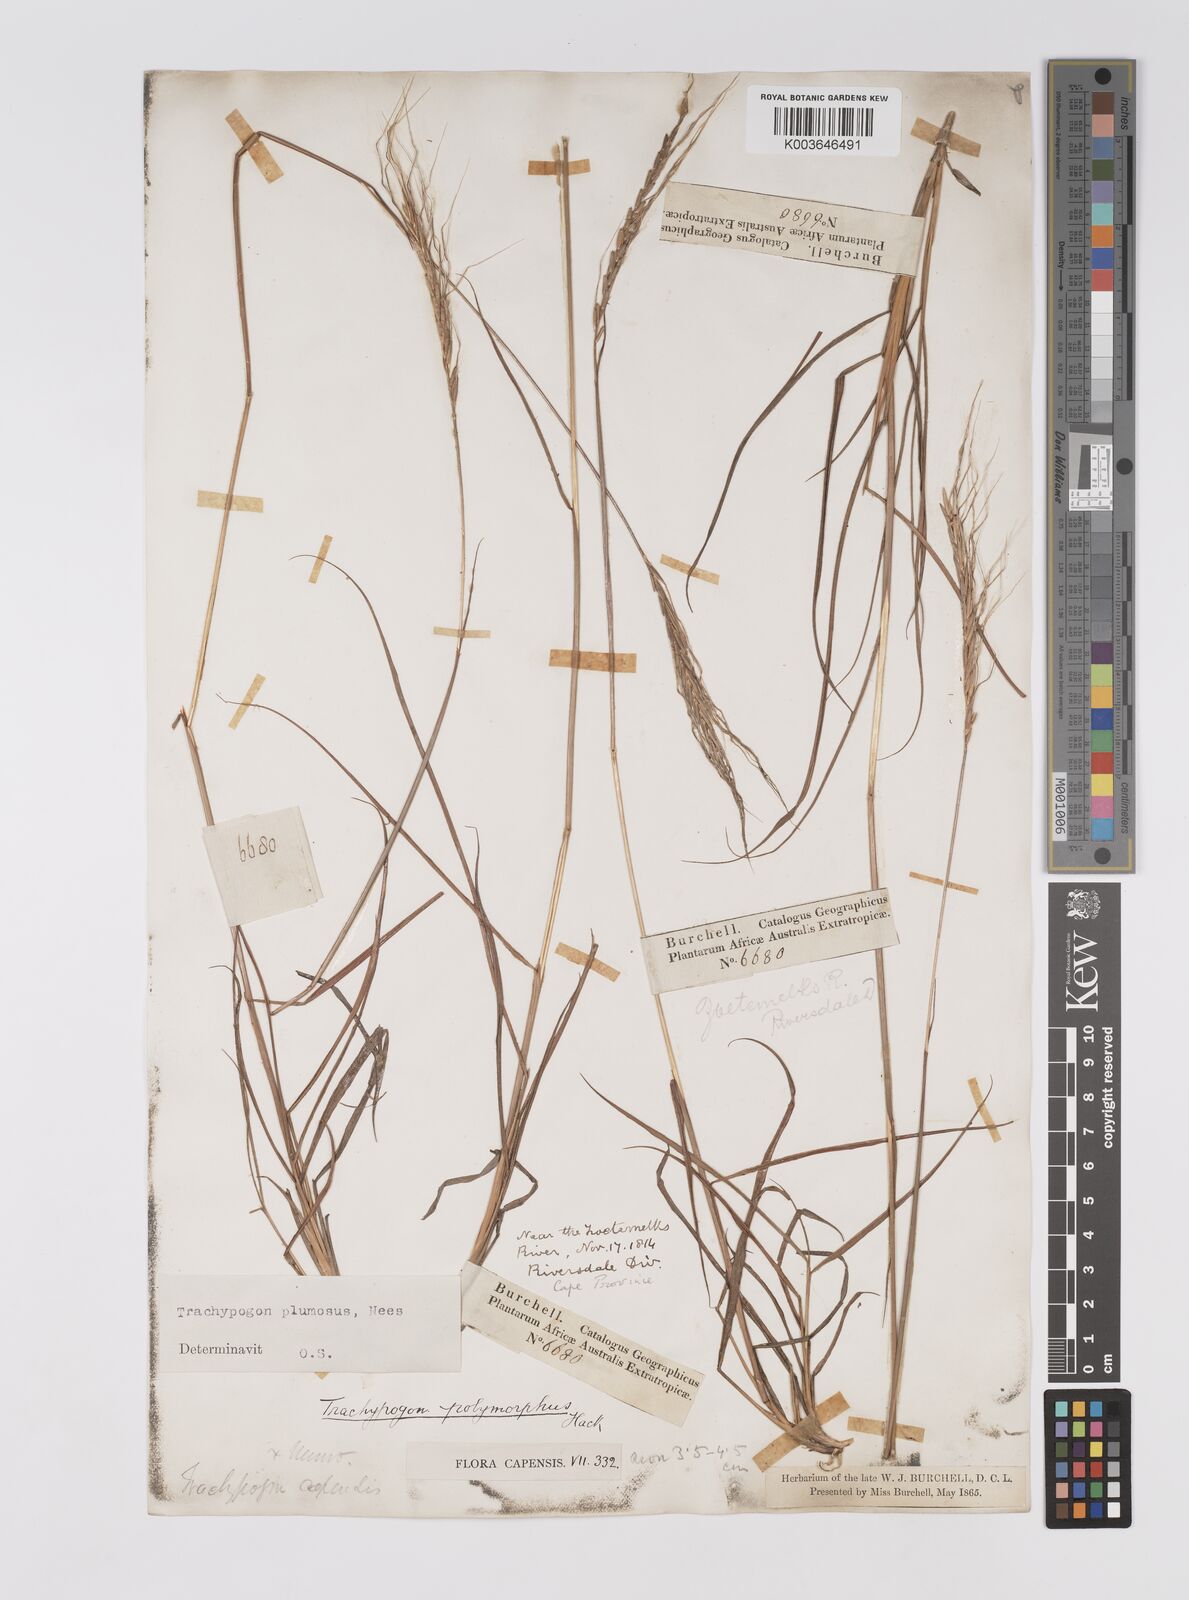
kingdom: Plantae
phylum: Tracheophyta
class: Liliopsida
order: Poales
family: Poaceae
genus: Trachypogon
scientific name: Trachypogon spicatus
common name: Crinkle-awn
